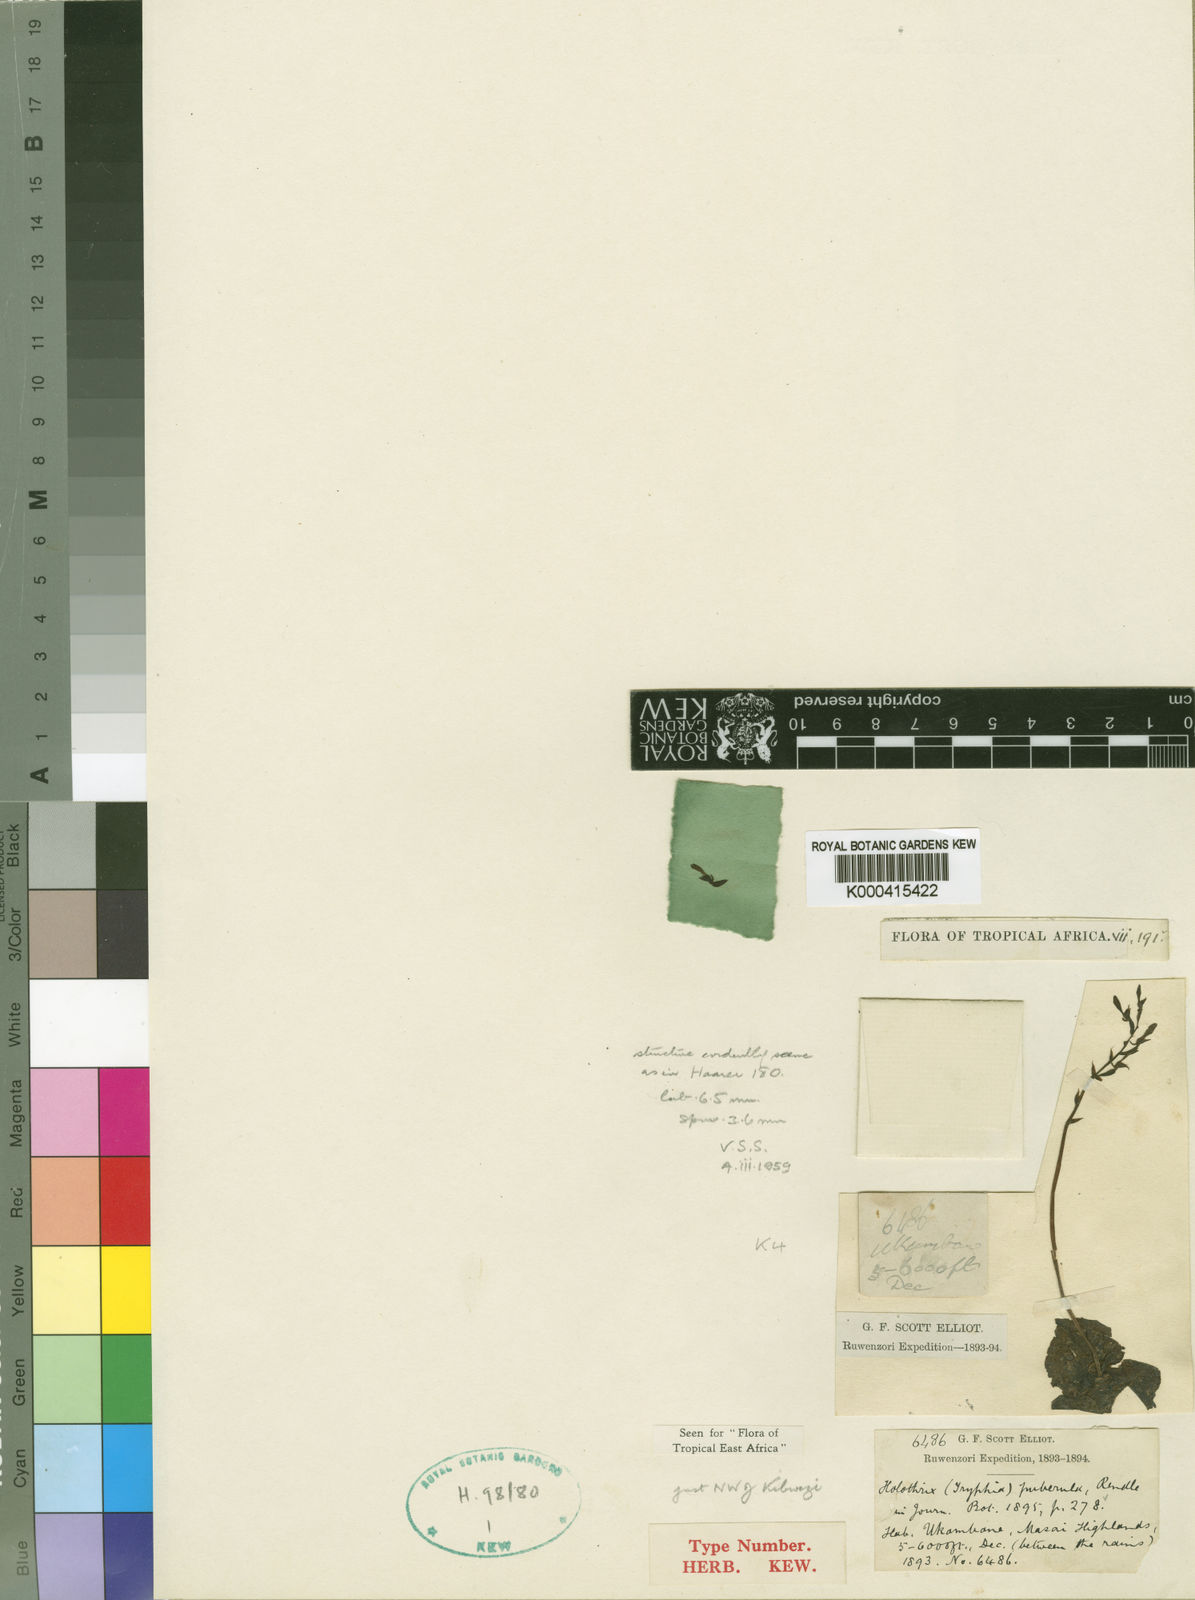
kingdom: Plantae
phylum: Tracheophyta
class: Liliopsida
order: Asparagales
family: Orchidaceae
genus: Holothrix
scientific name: Holothrix brongniartiana
